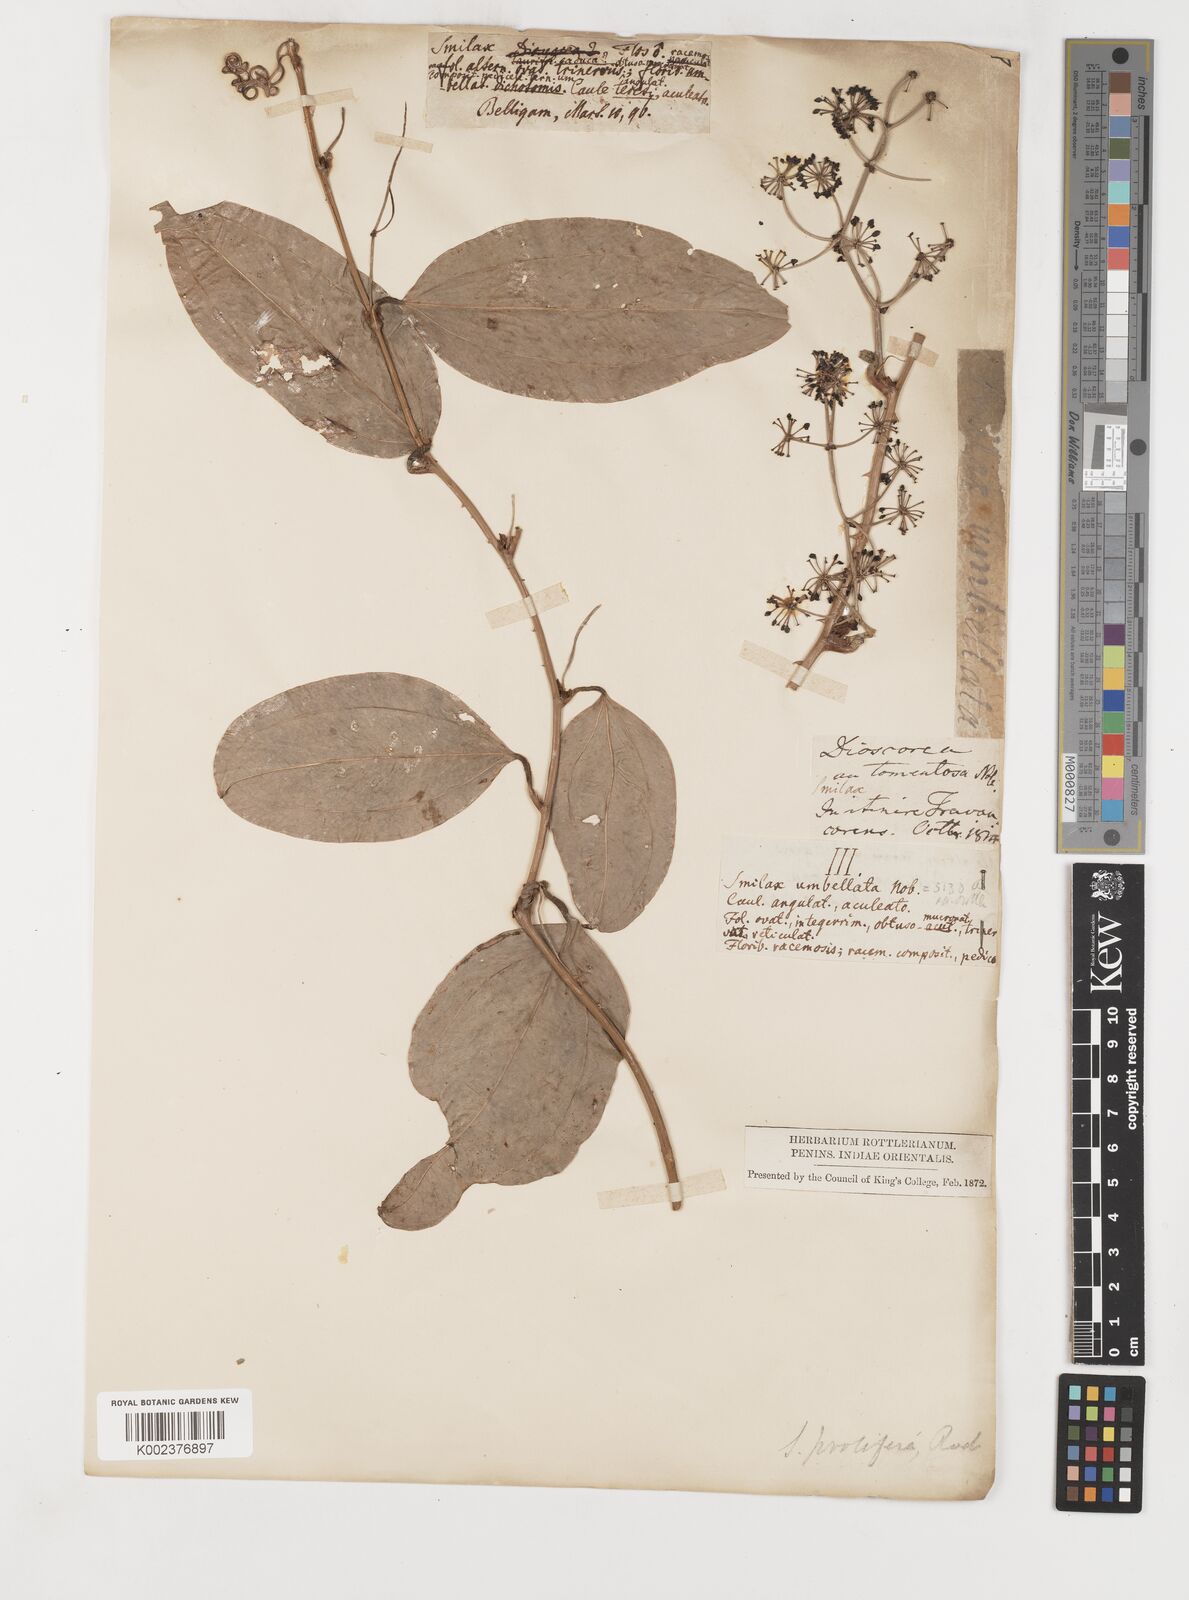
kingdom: Plantae
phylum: Tracheophyta
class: Liliopsida
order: Liliales
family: Smilacaceae
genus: Smilax
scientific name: Smilax prolifera
